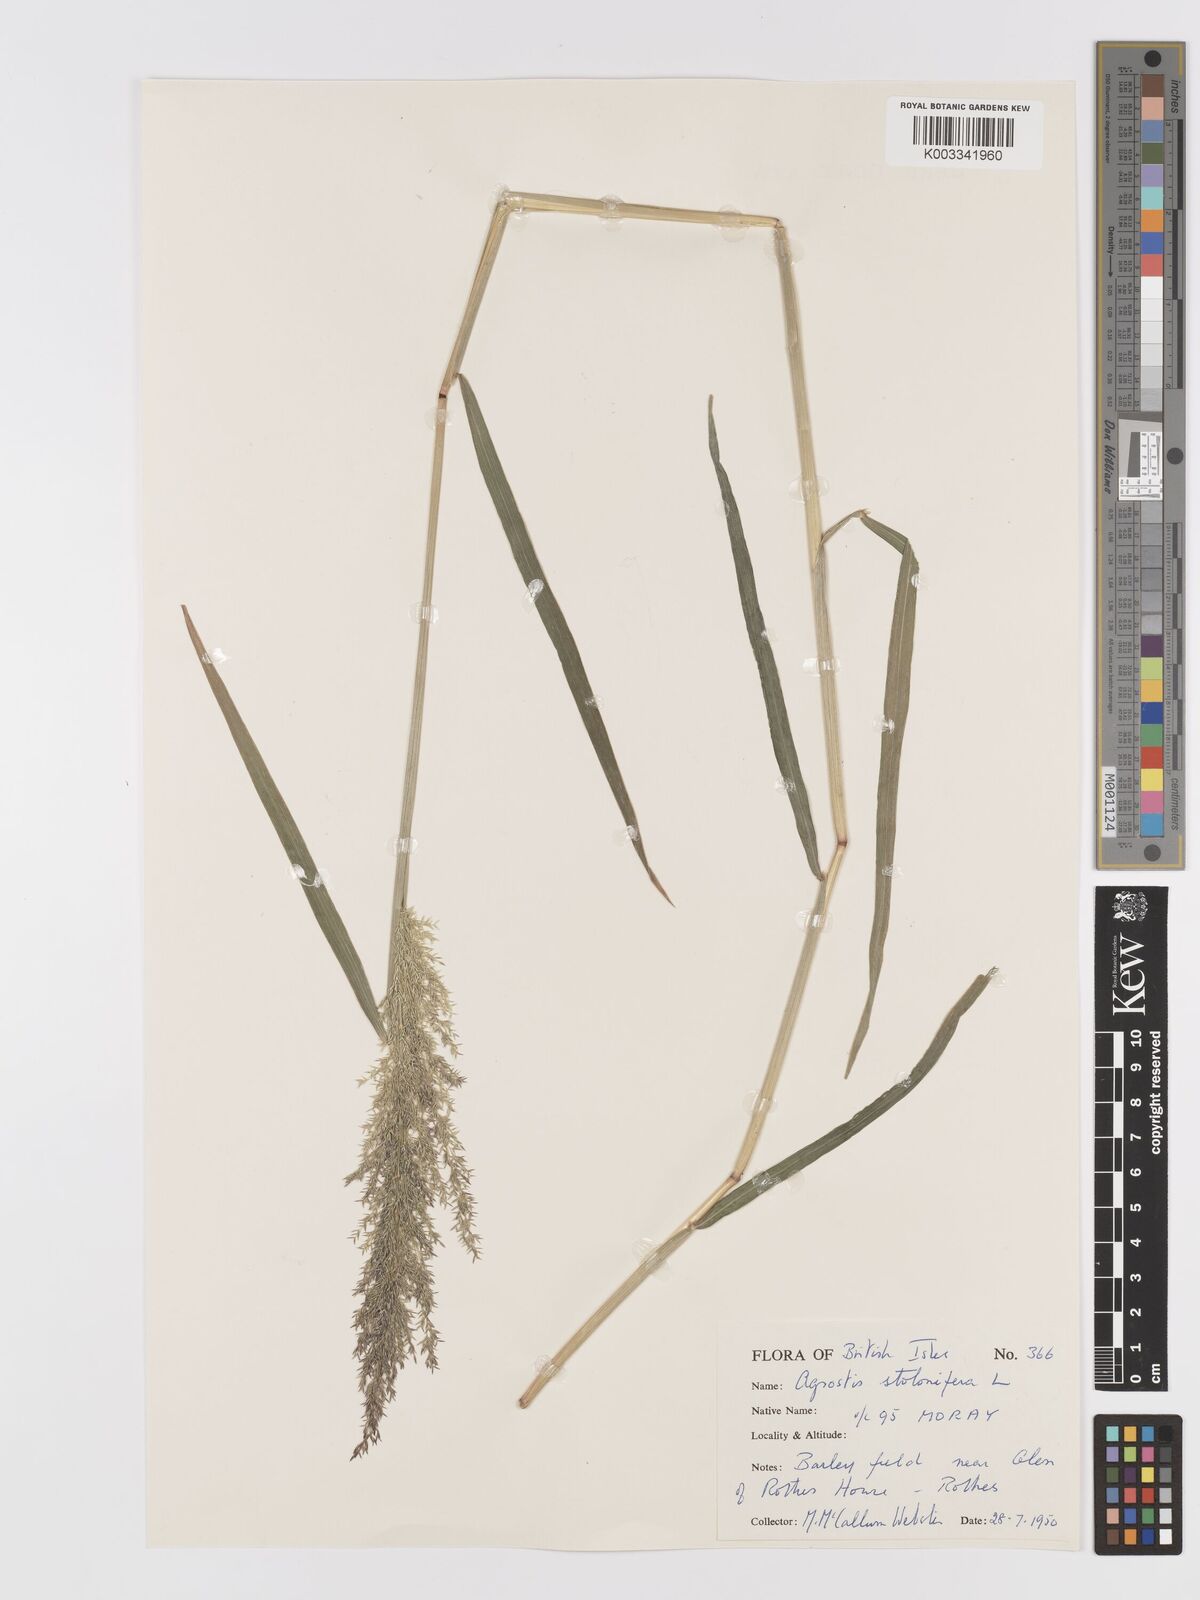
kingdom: Plantae
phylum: Tracheophyta
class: Liliopsida
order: Poales
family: Poaceae
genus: Agrostis
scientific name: Agrostis stolonifera
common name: Creeping bentgrass
